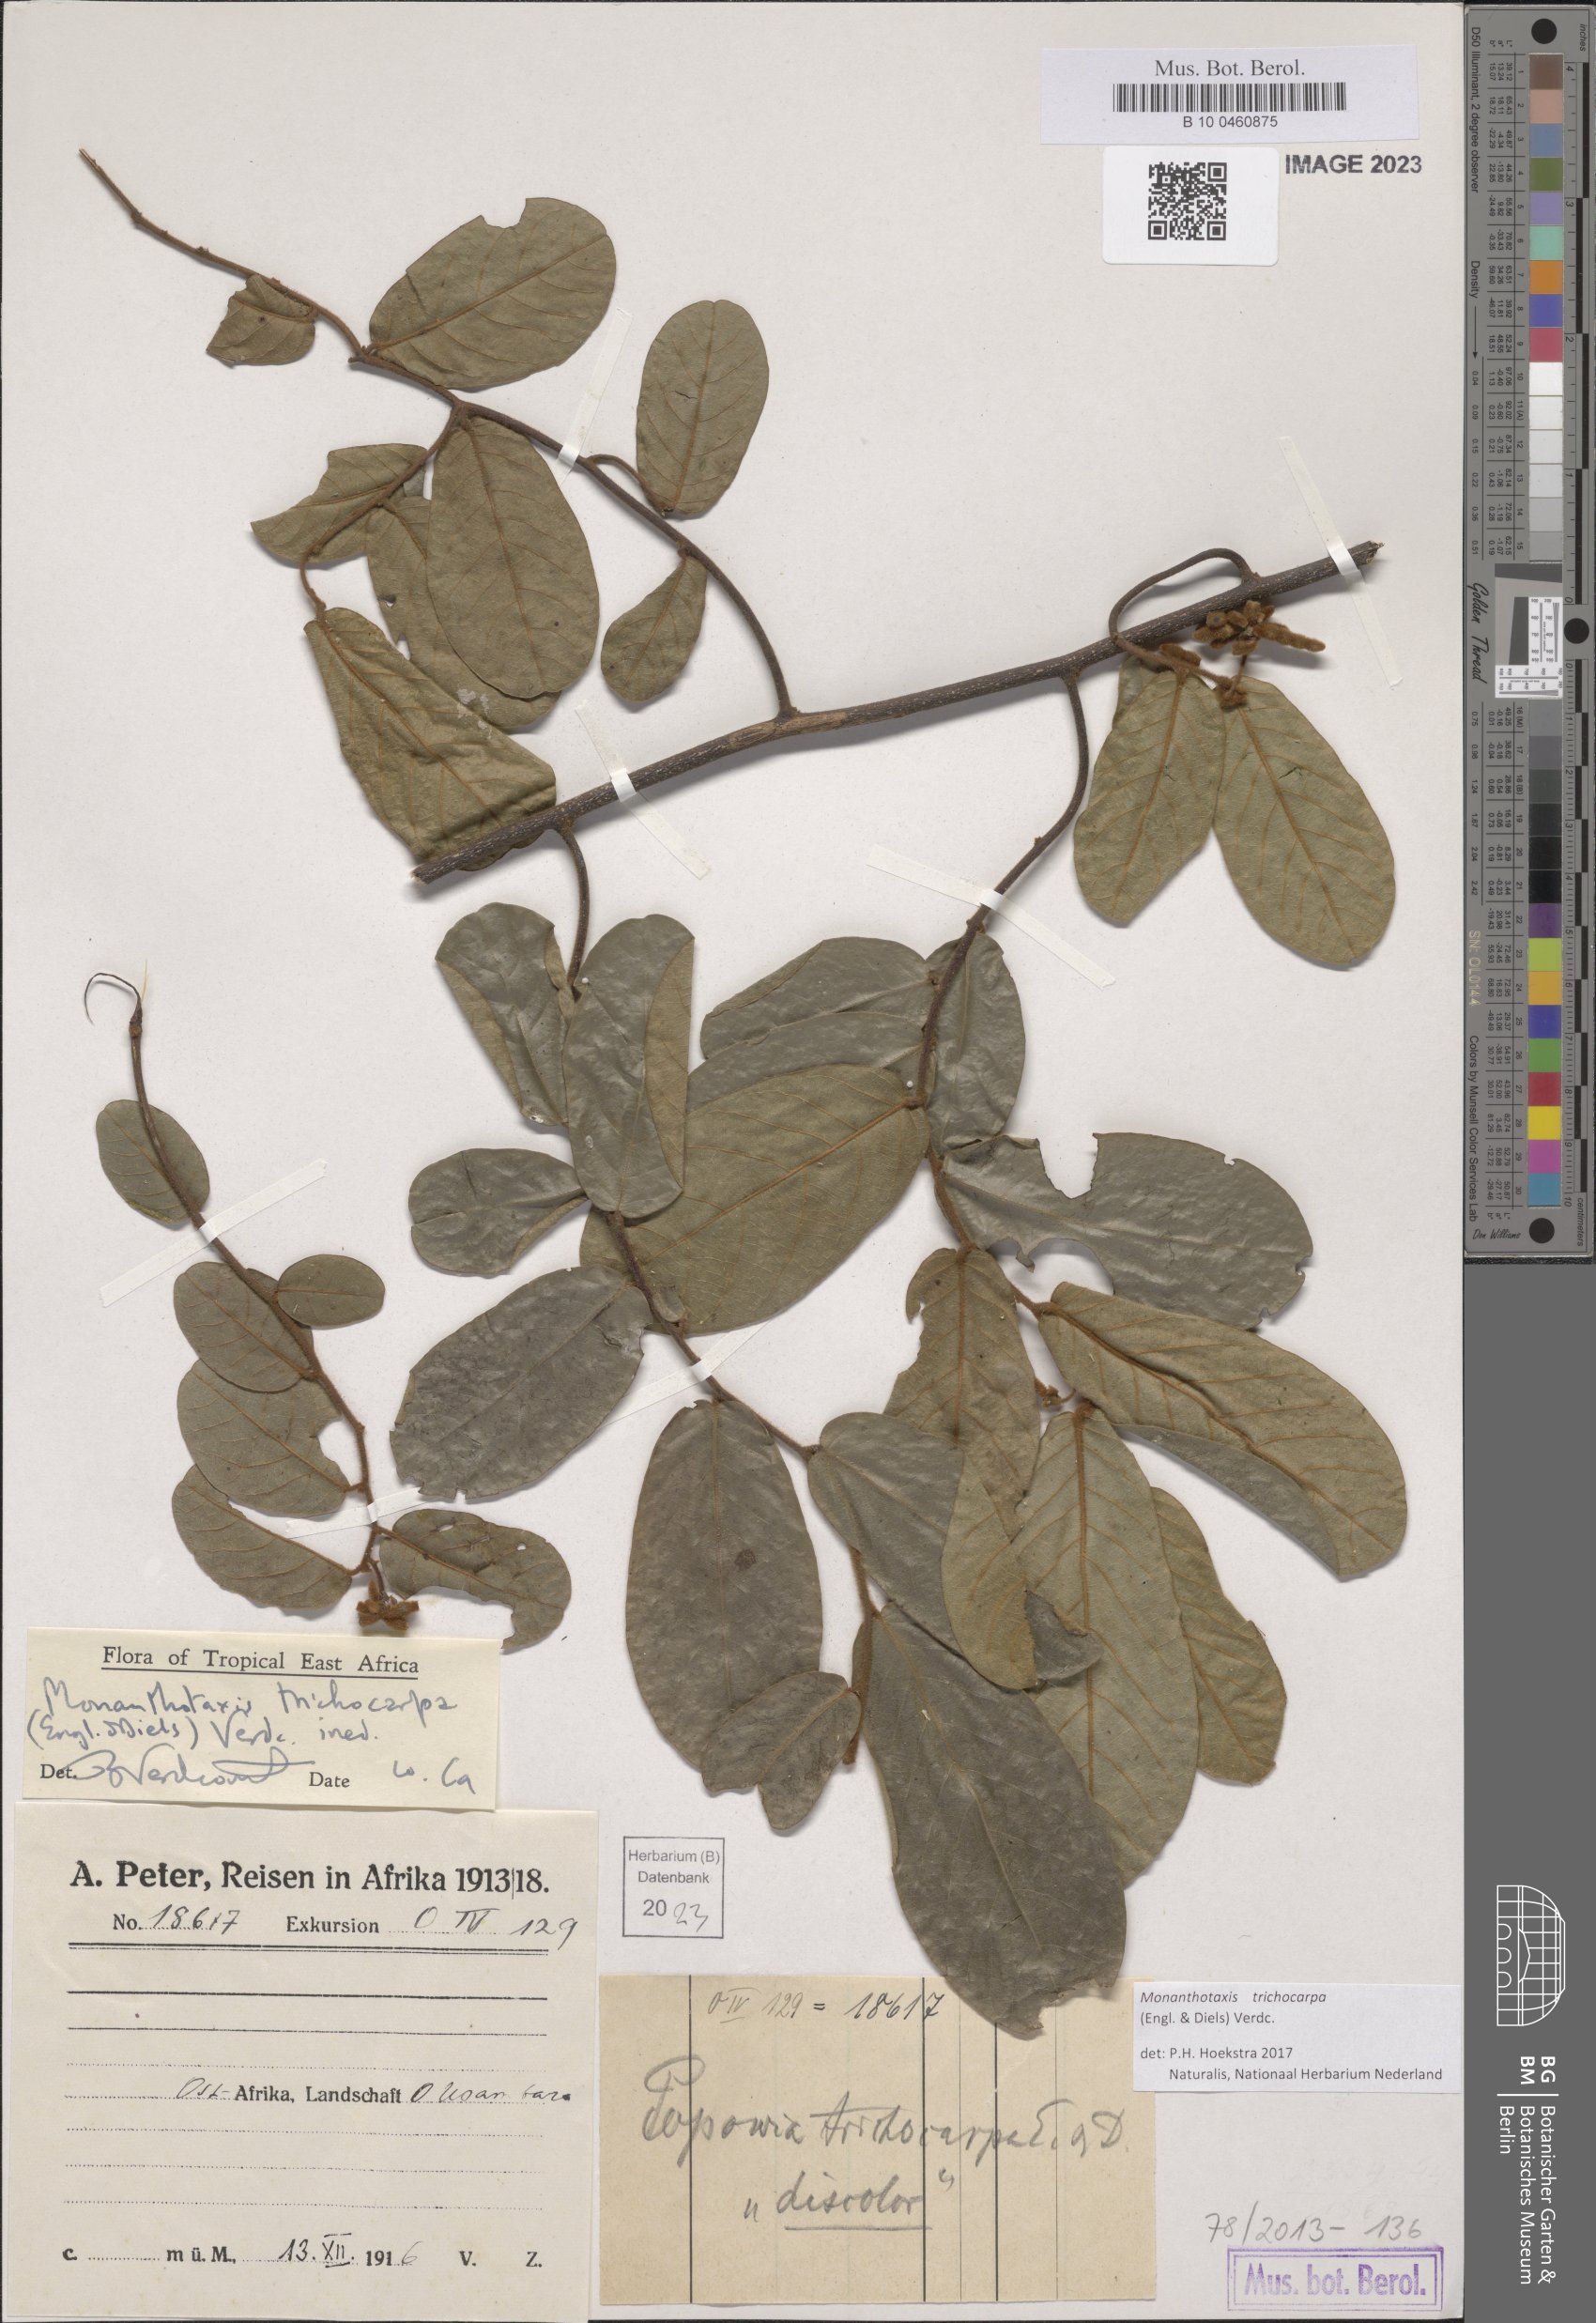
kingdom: Plantae
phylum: Tracheophyta
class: Magnoliopsida
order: Magnoliales
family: Annonaceae
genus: Monanthotaxis
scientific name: Monanthotaxis trichocarpa
